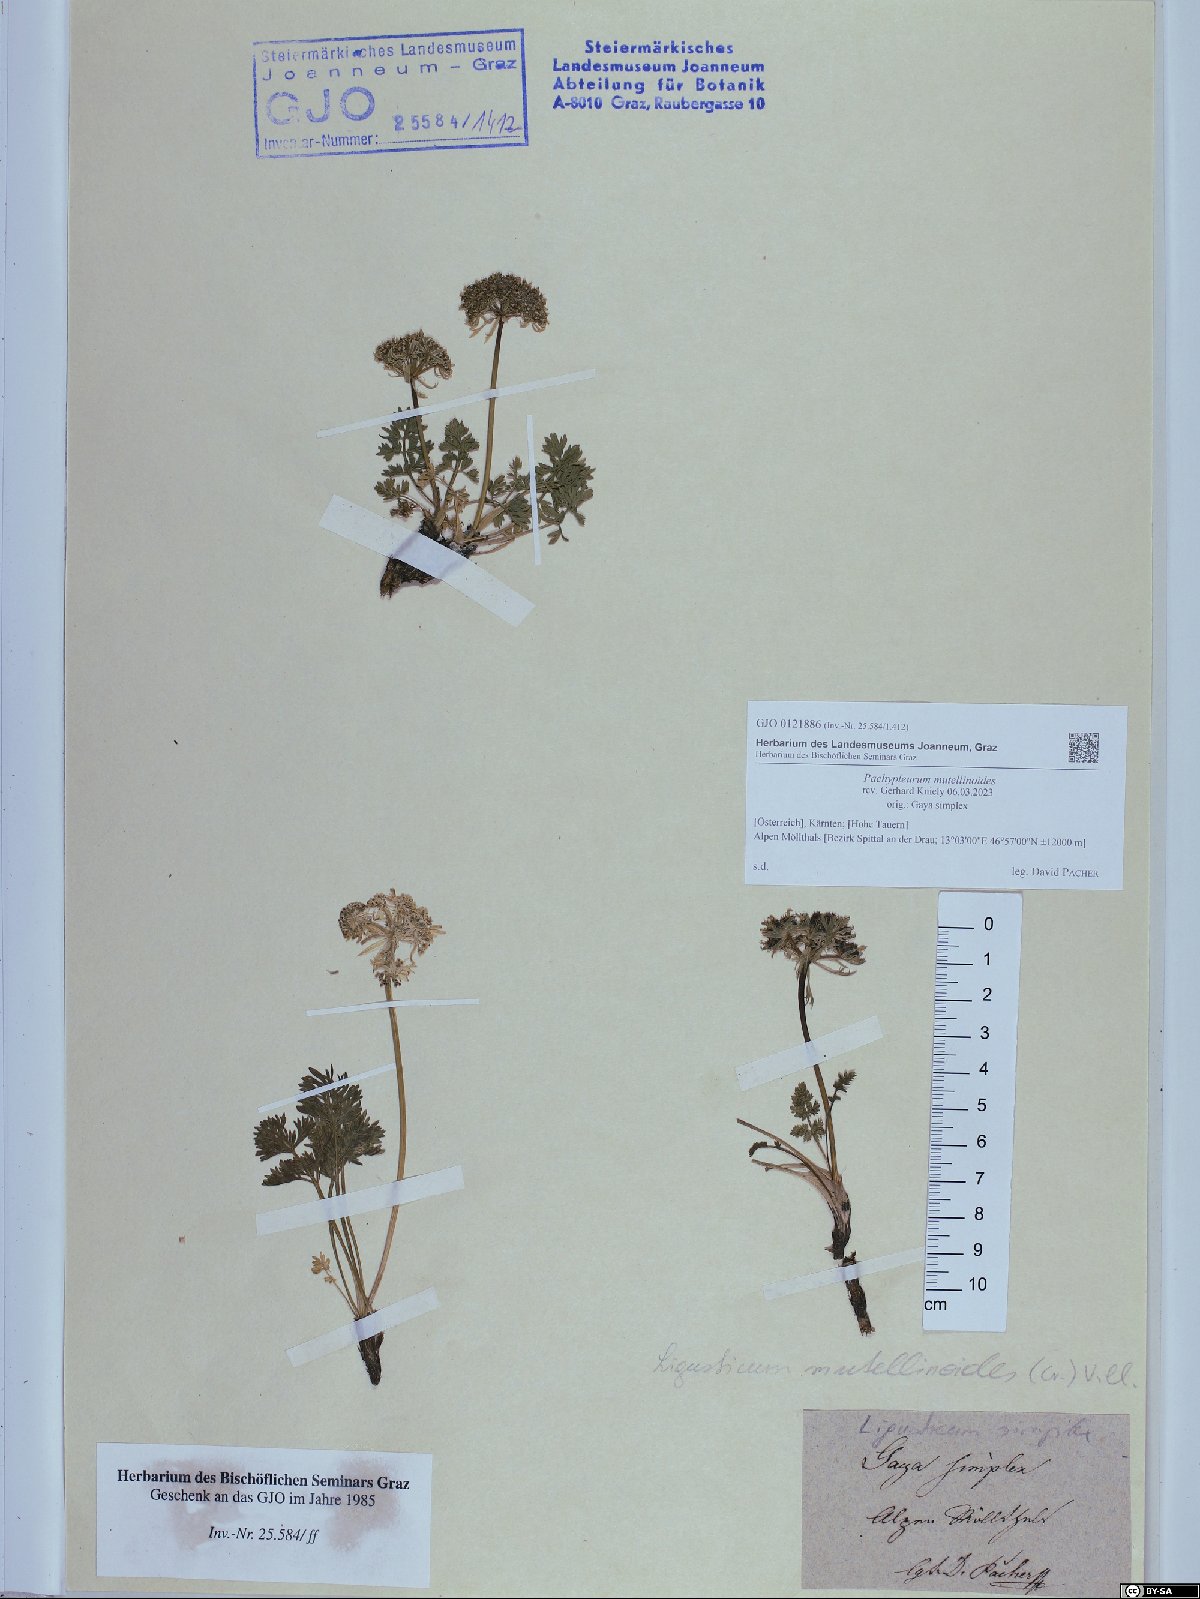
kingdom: Plantae
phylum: Tracheophyta
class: Magnoliopsida
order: Apiales
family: Apiaceae
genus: Pachypleurum
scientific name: Pachypleurum mutellinoides
